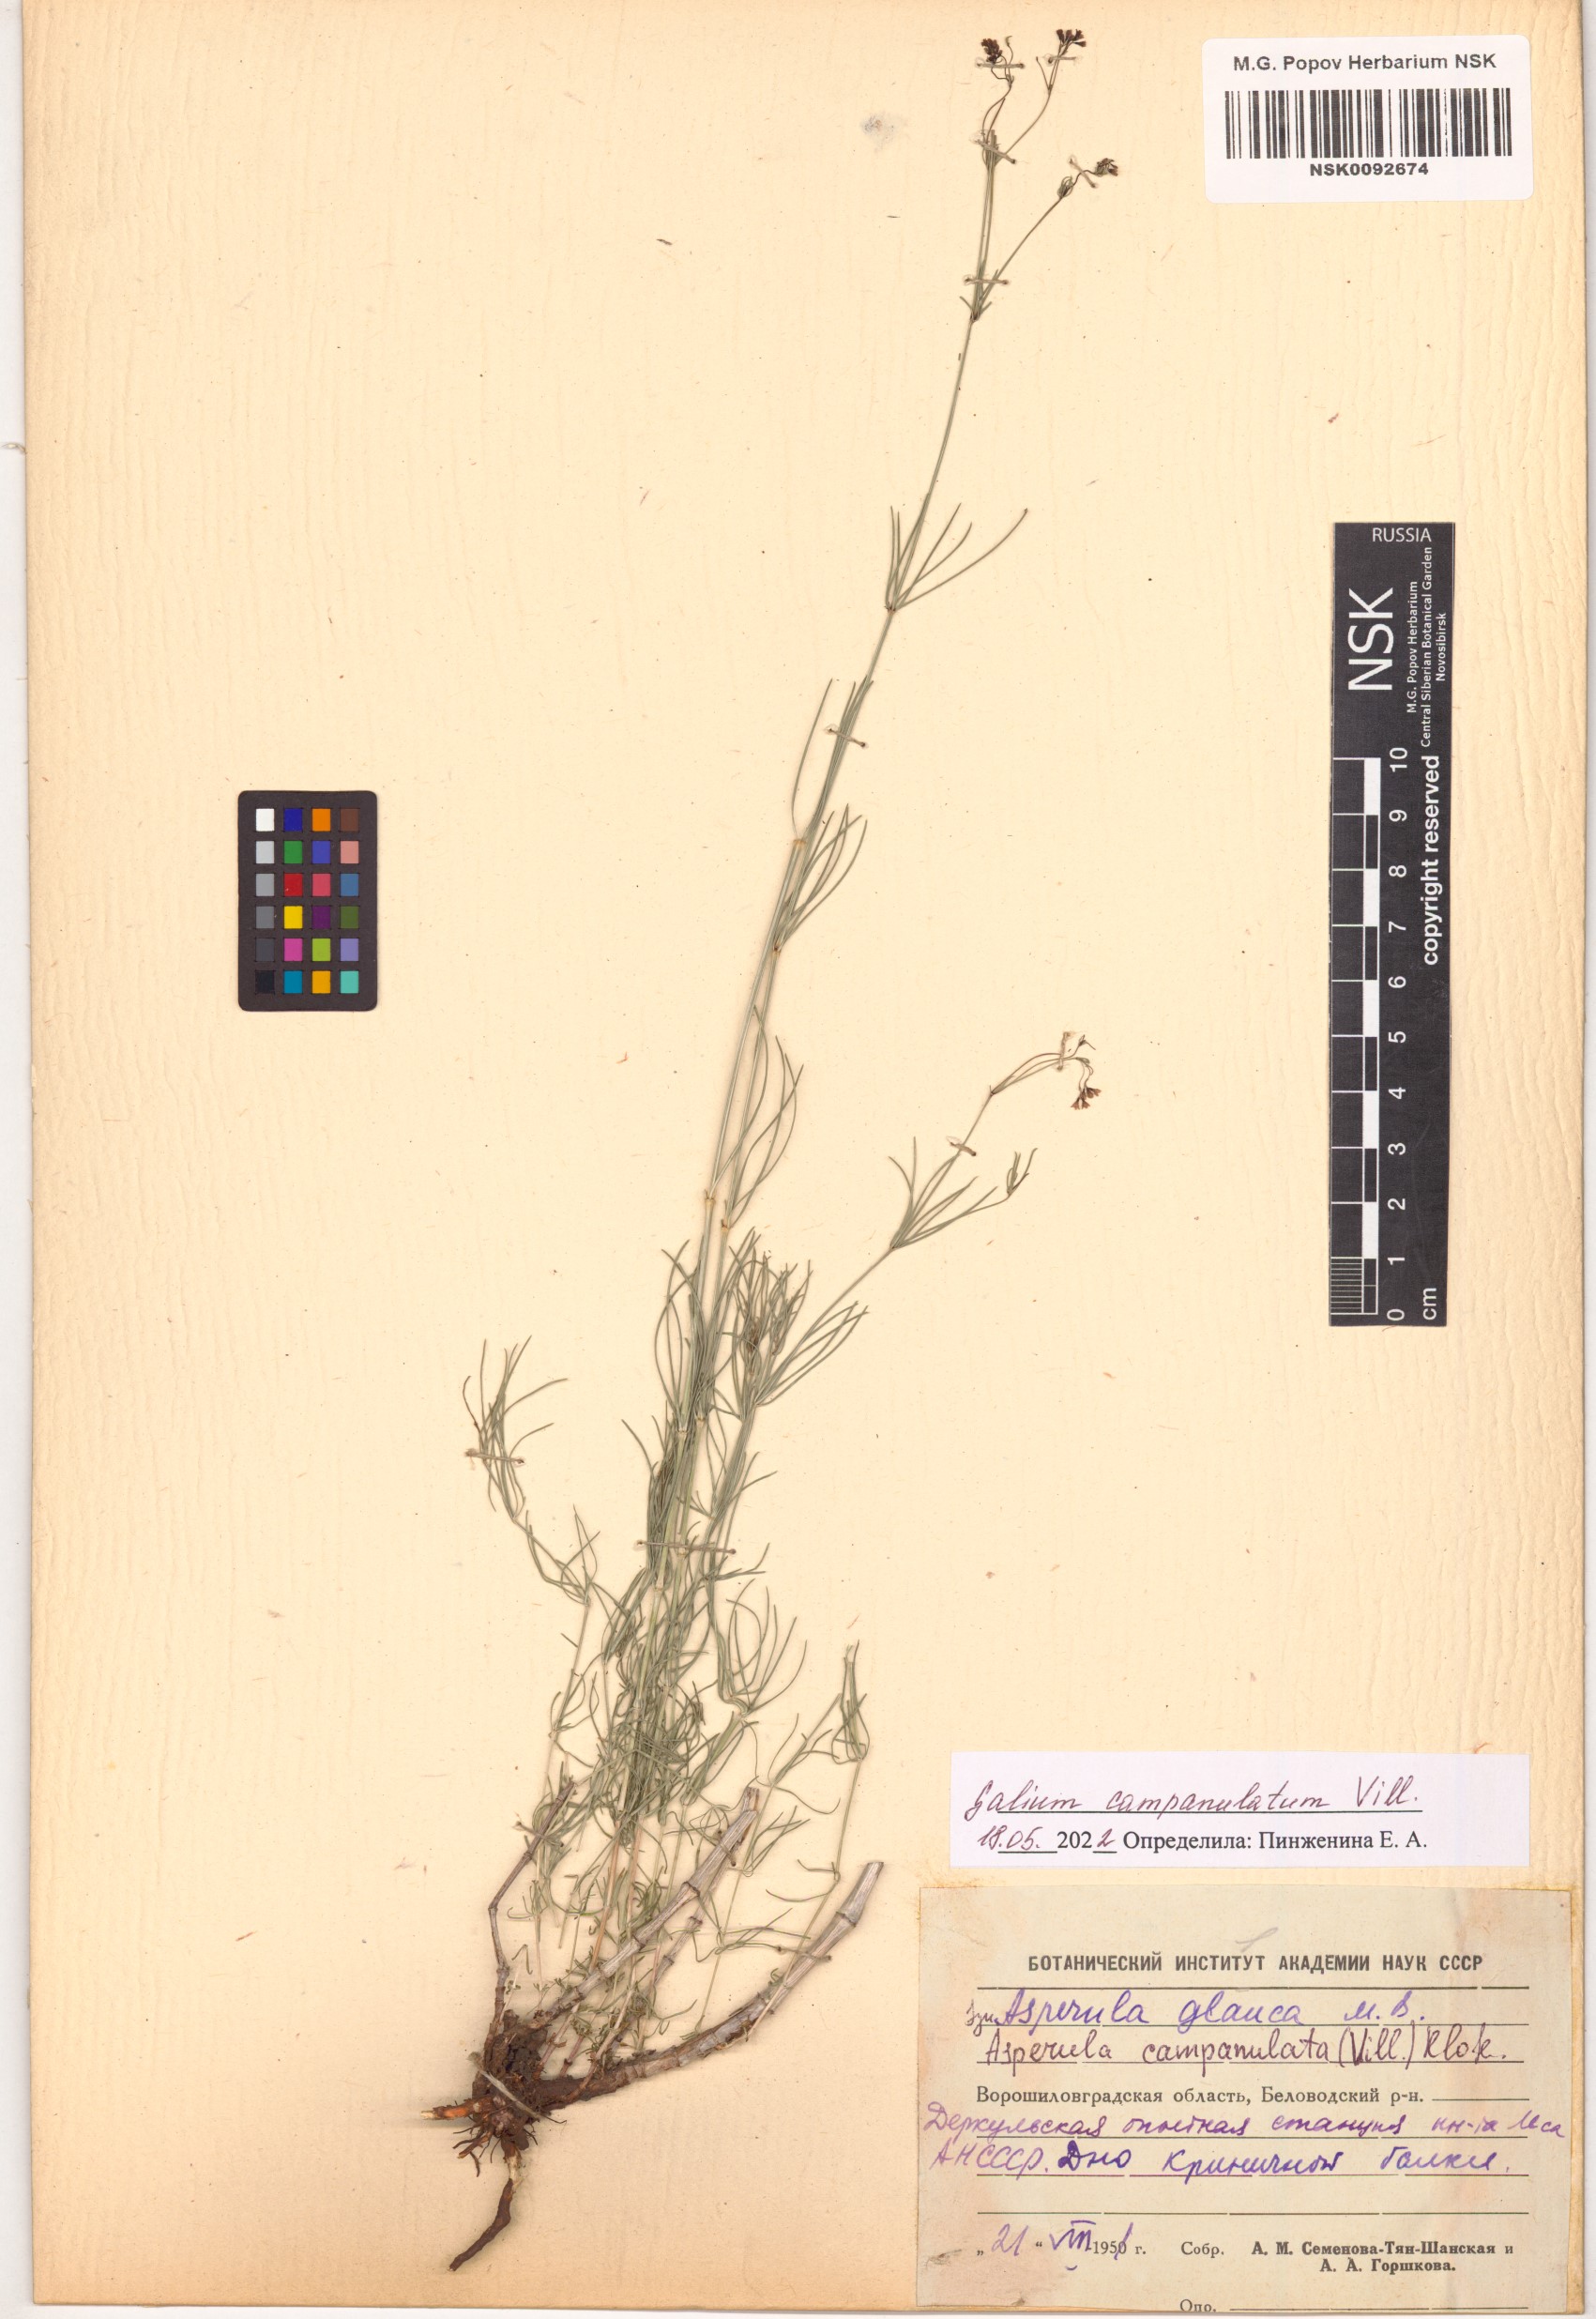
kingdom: Plantae
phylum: Tracheophyta
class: Magnoliopsida
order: Gentianales
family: Rubiaceae
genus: Galium
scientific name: Galium glaucum
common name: Waxy bedstraw
